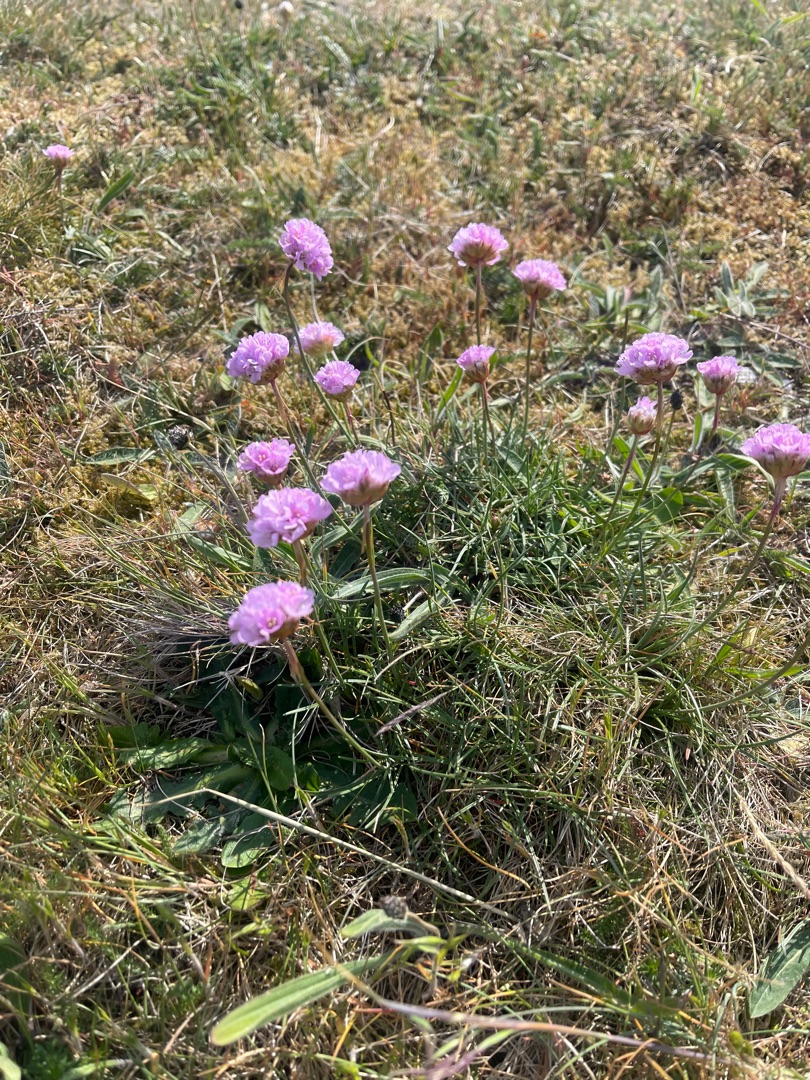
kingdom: Plantae
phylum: Tracheophyta
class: Magnoliopsida
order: Caryophyllales
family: Plumbaginaceae
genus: Armeria
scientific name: Armeria maritima
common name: Engelskgræs
